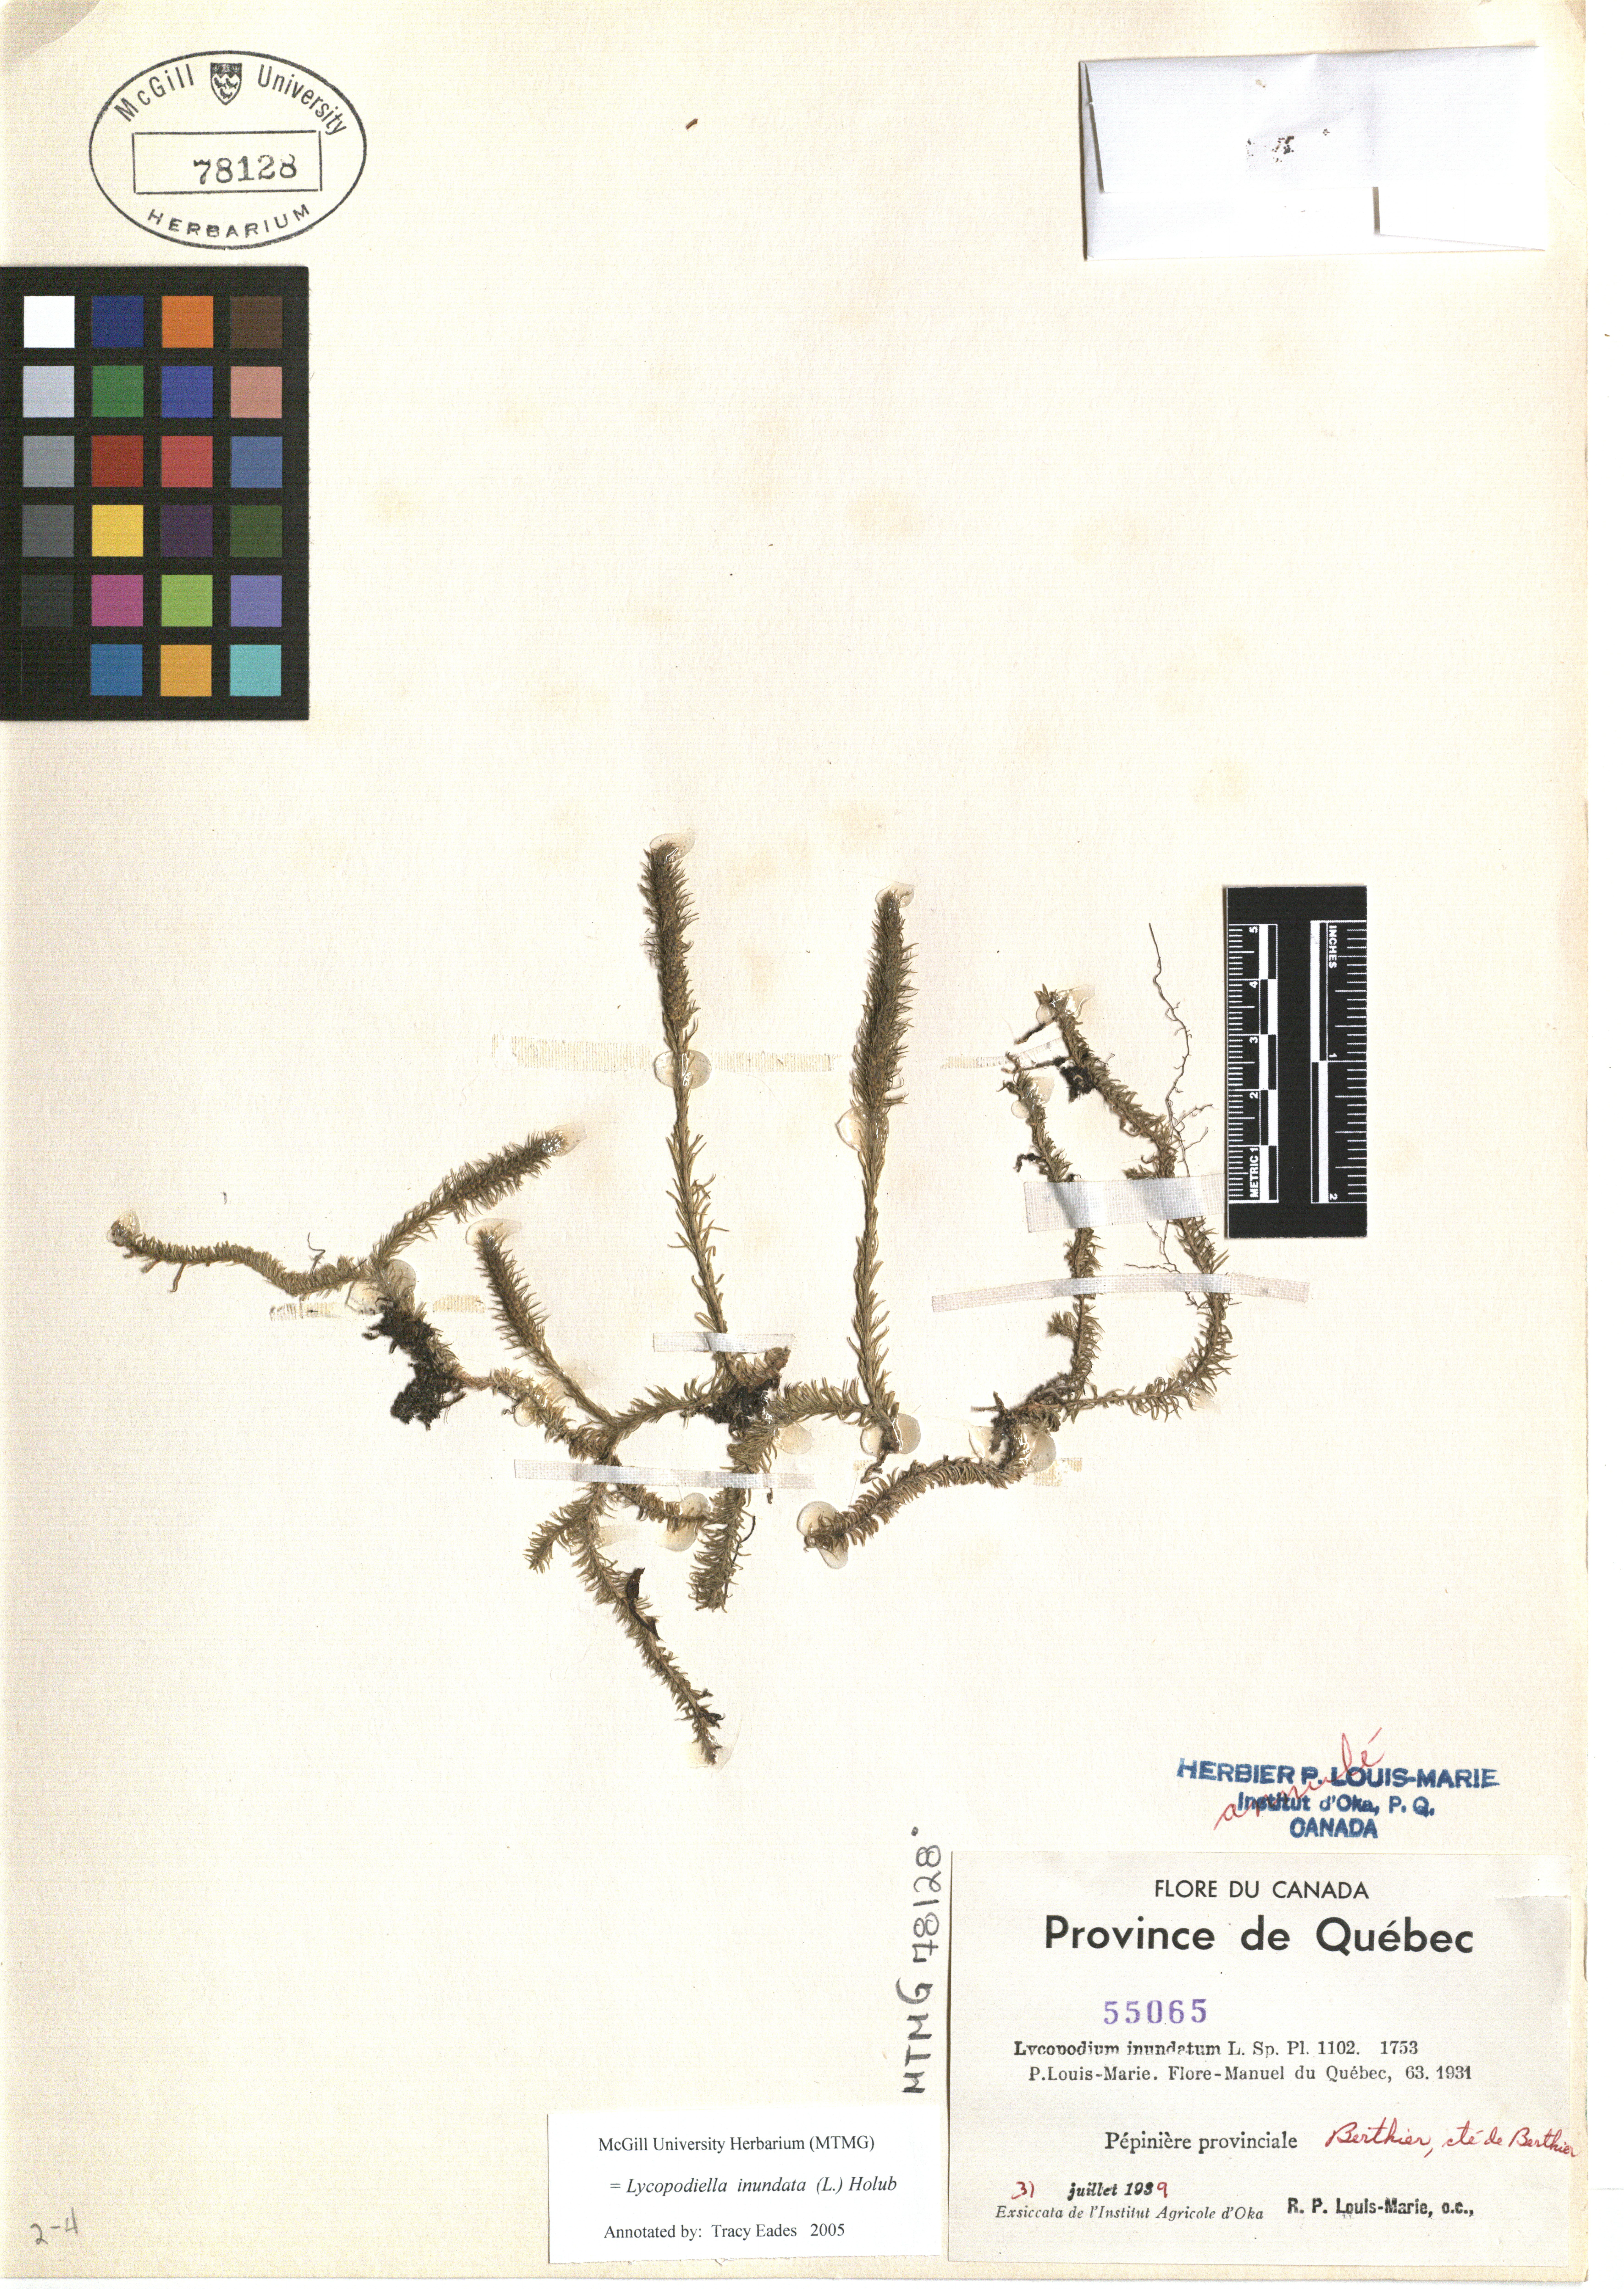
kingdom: Plantae
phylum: Tracheophyta
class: Lycopodiopsida
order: Lycopodiales
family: Lycopodiaceae
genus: Lycopodiella
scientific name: Lycopodiella inundata
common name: Marsh clubmoss
